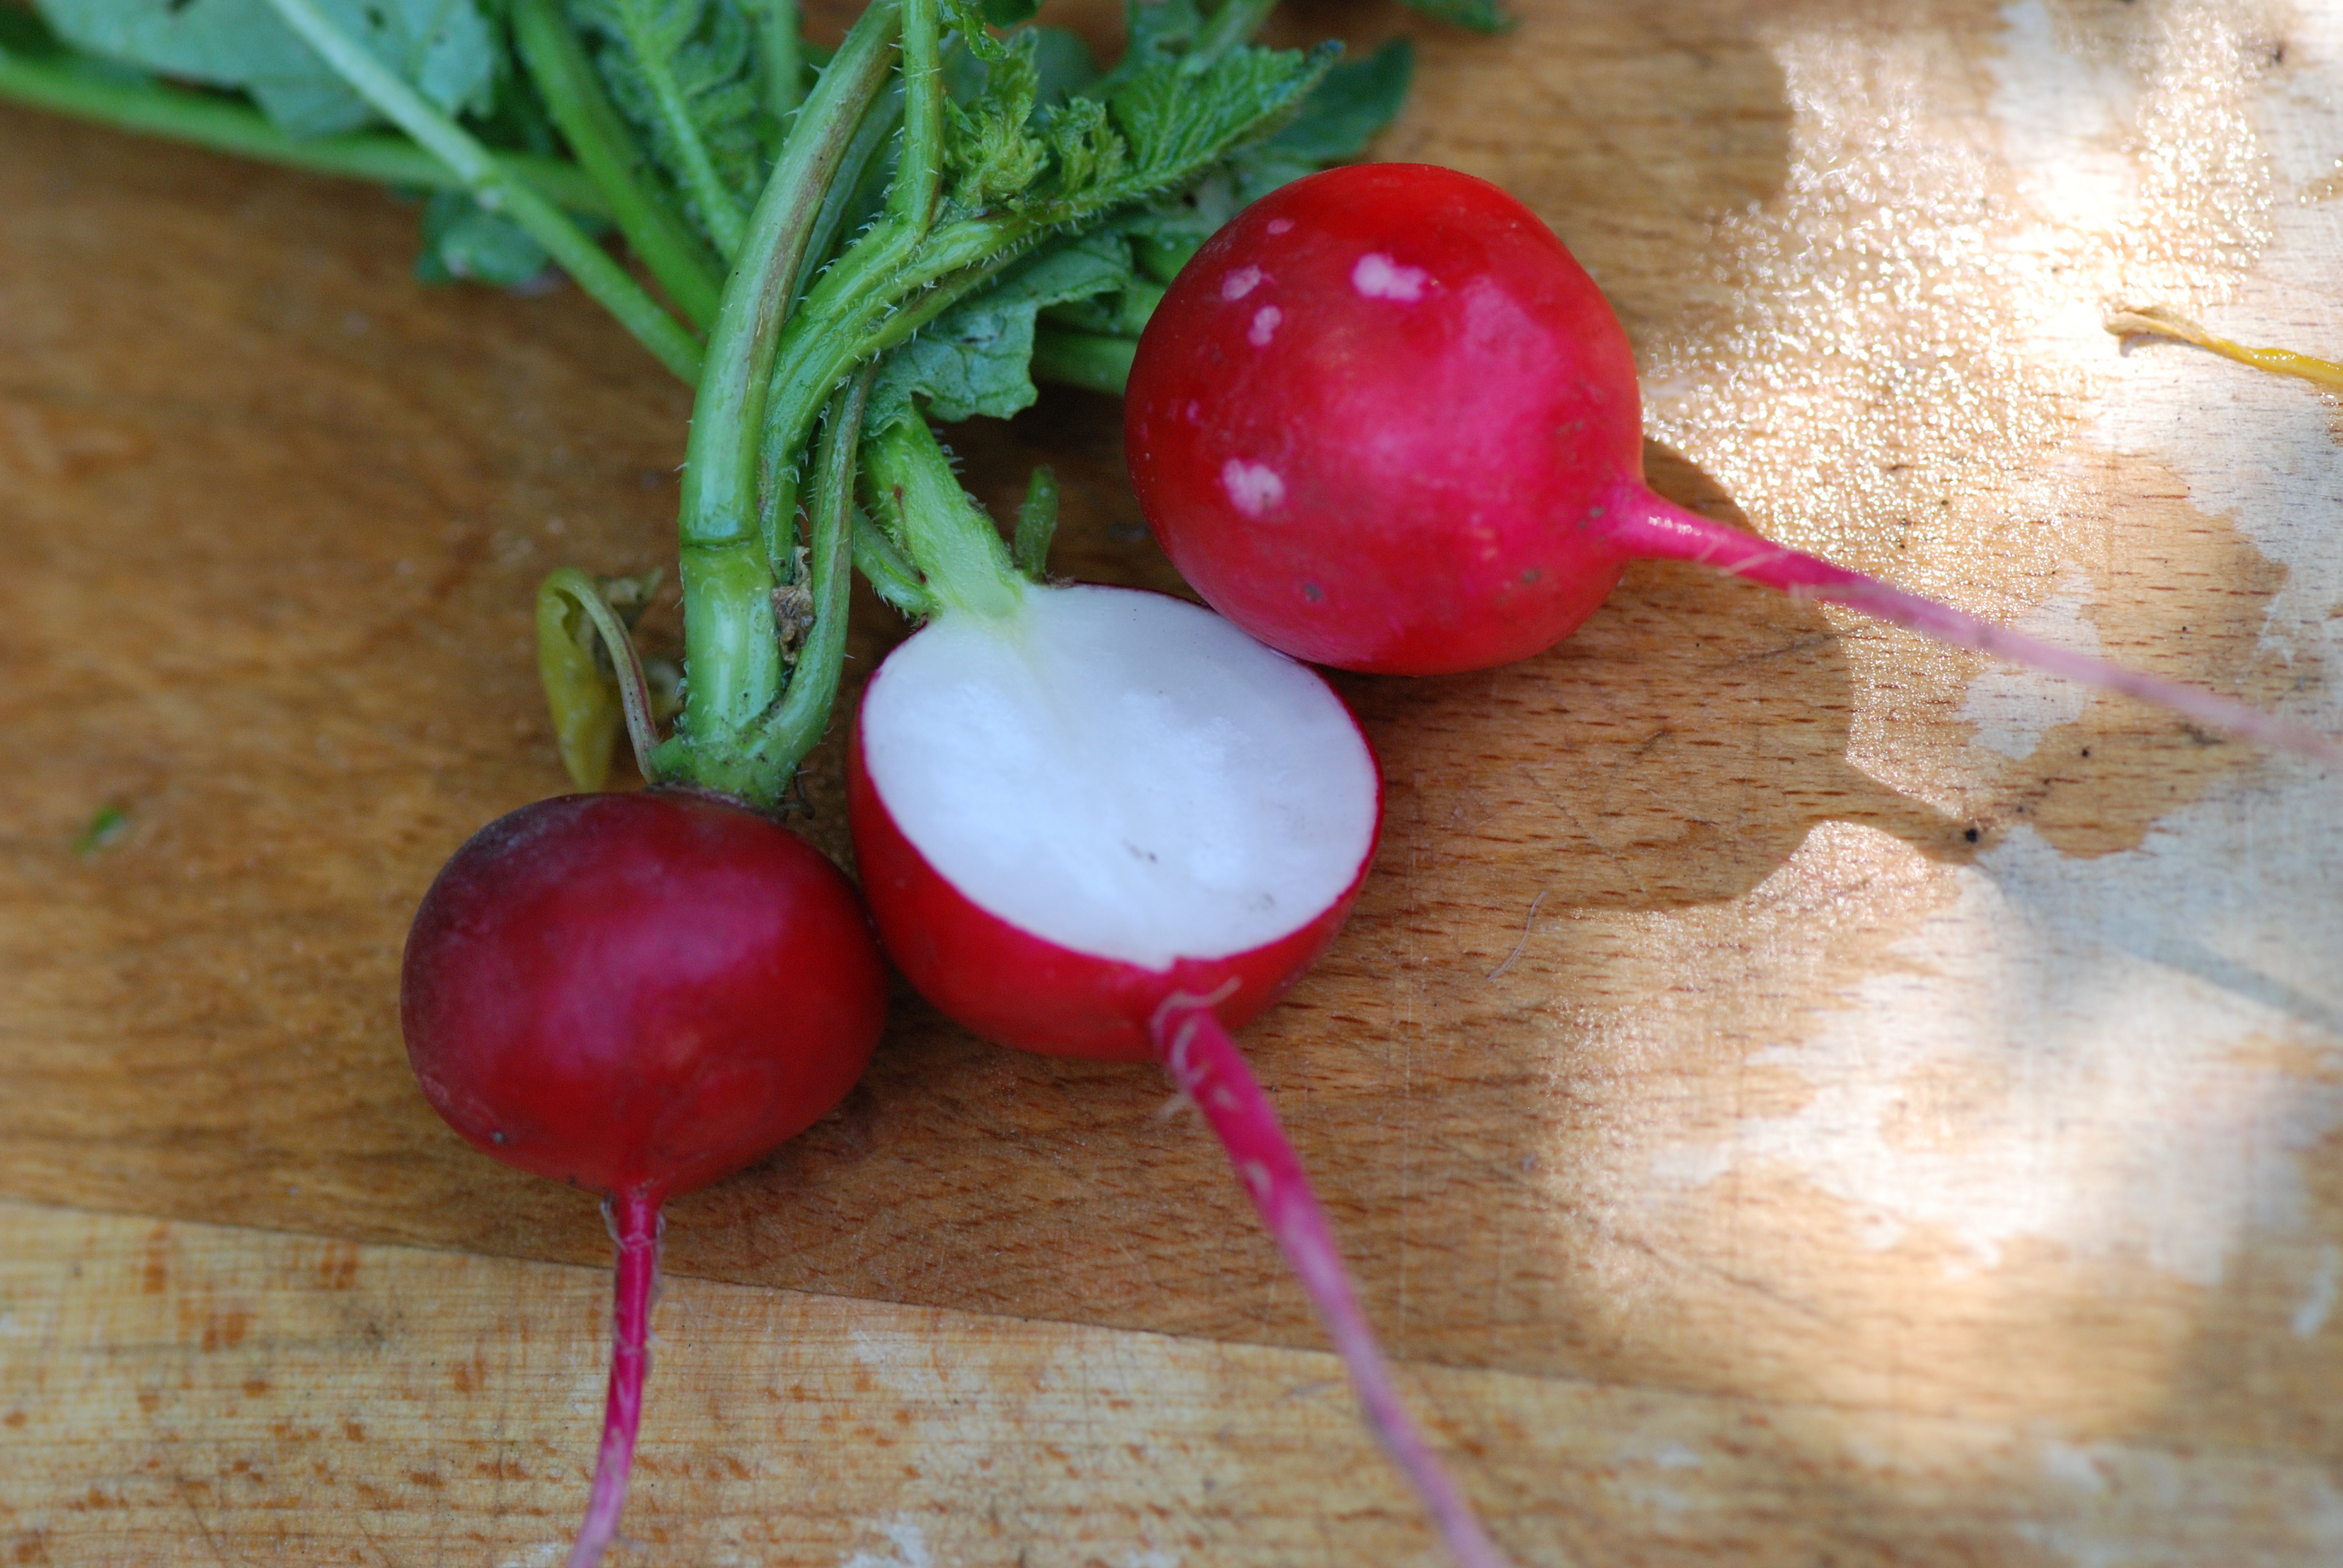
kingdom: Plantae
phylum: Tracheophyta
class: Magnoliopsida
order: Brassicales
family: Brassicaceae
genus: Raphanus
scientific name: Raphanus sativus
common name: Cultivated radish
